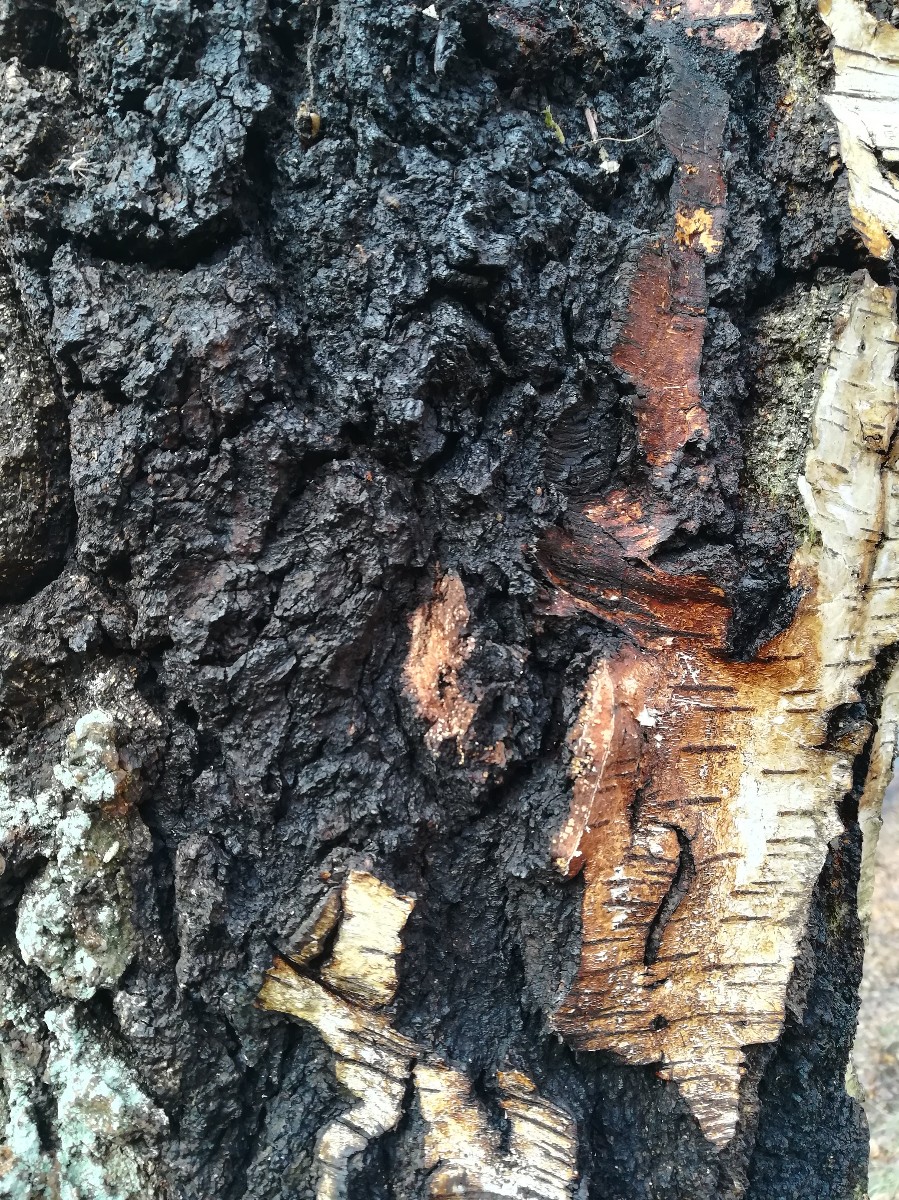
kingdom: Fungi
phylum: Basidiomycota
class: Agaricomycetes
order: Hymenochaetales
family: Hymenochaetaceae
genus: Inonotus
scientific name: Inonotus obliquus
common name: birke-spejlporesvamp
